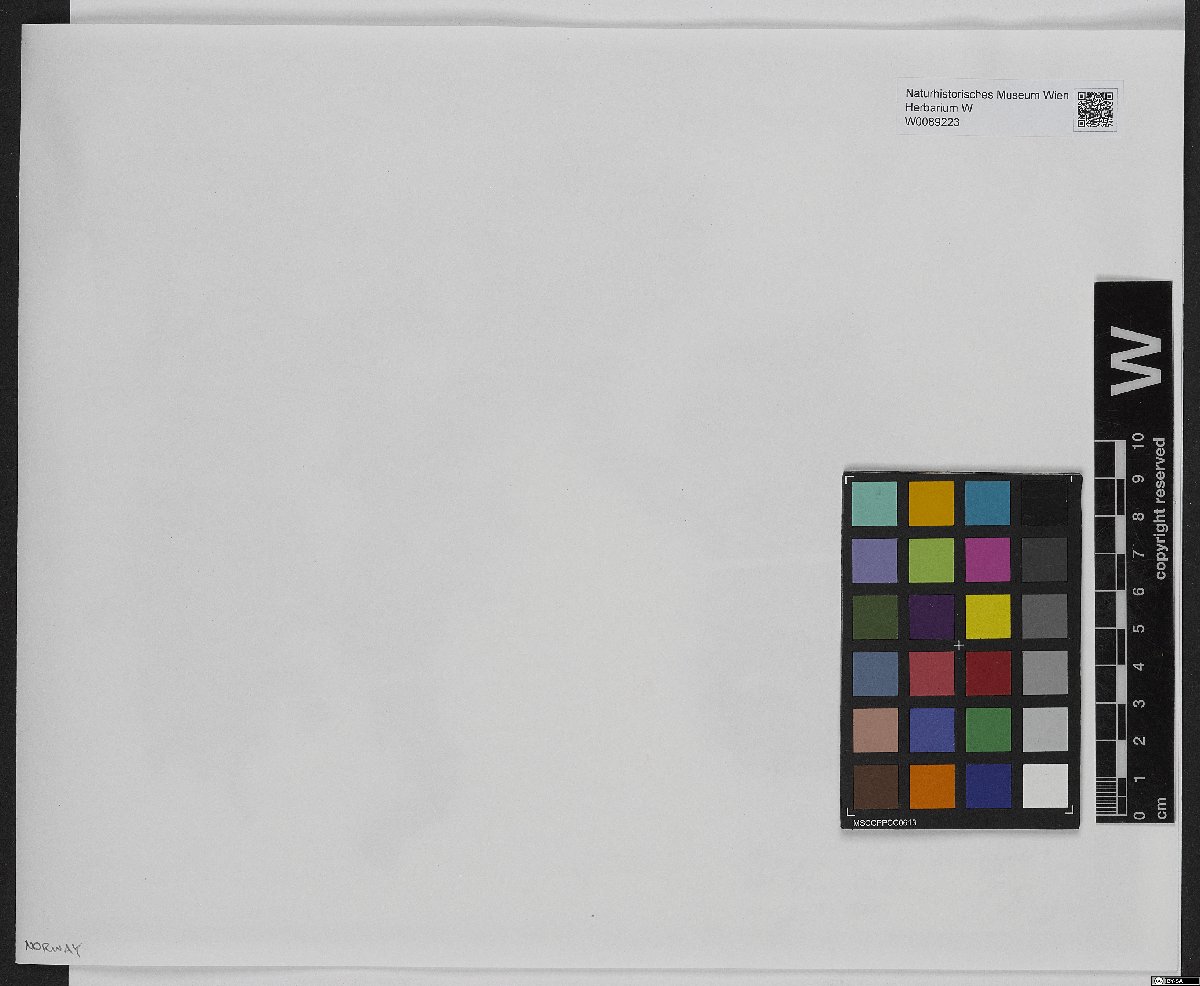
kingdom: Plantae
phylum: Bryophyta
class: Sphagnopsida
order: Sphagnales
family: Sphagnaceae
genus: Sphagnum
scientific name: Sphagnum lindbergii
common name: Lindberg's peat moss
